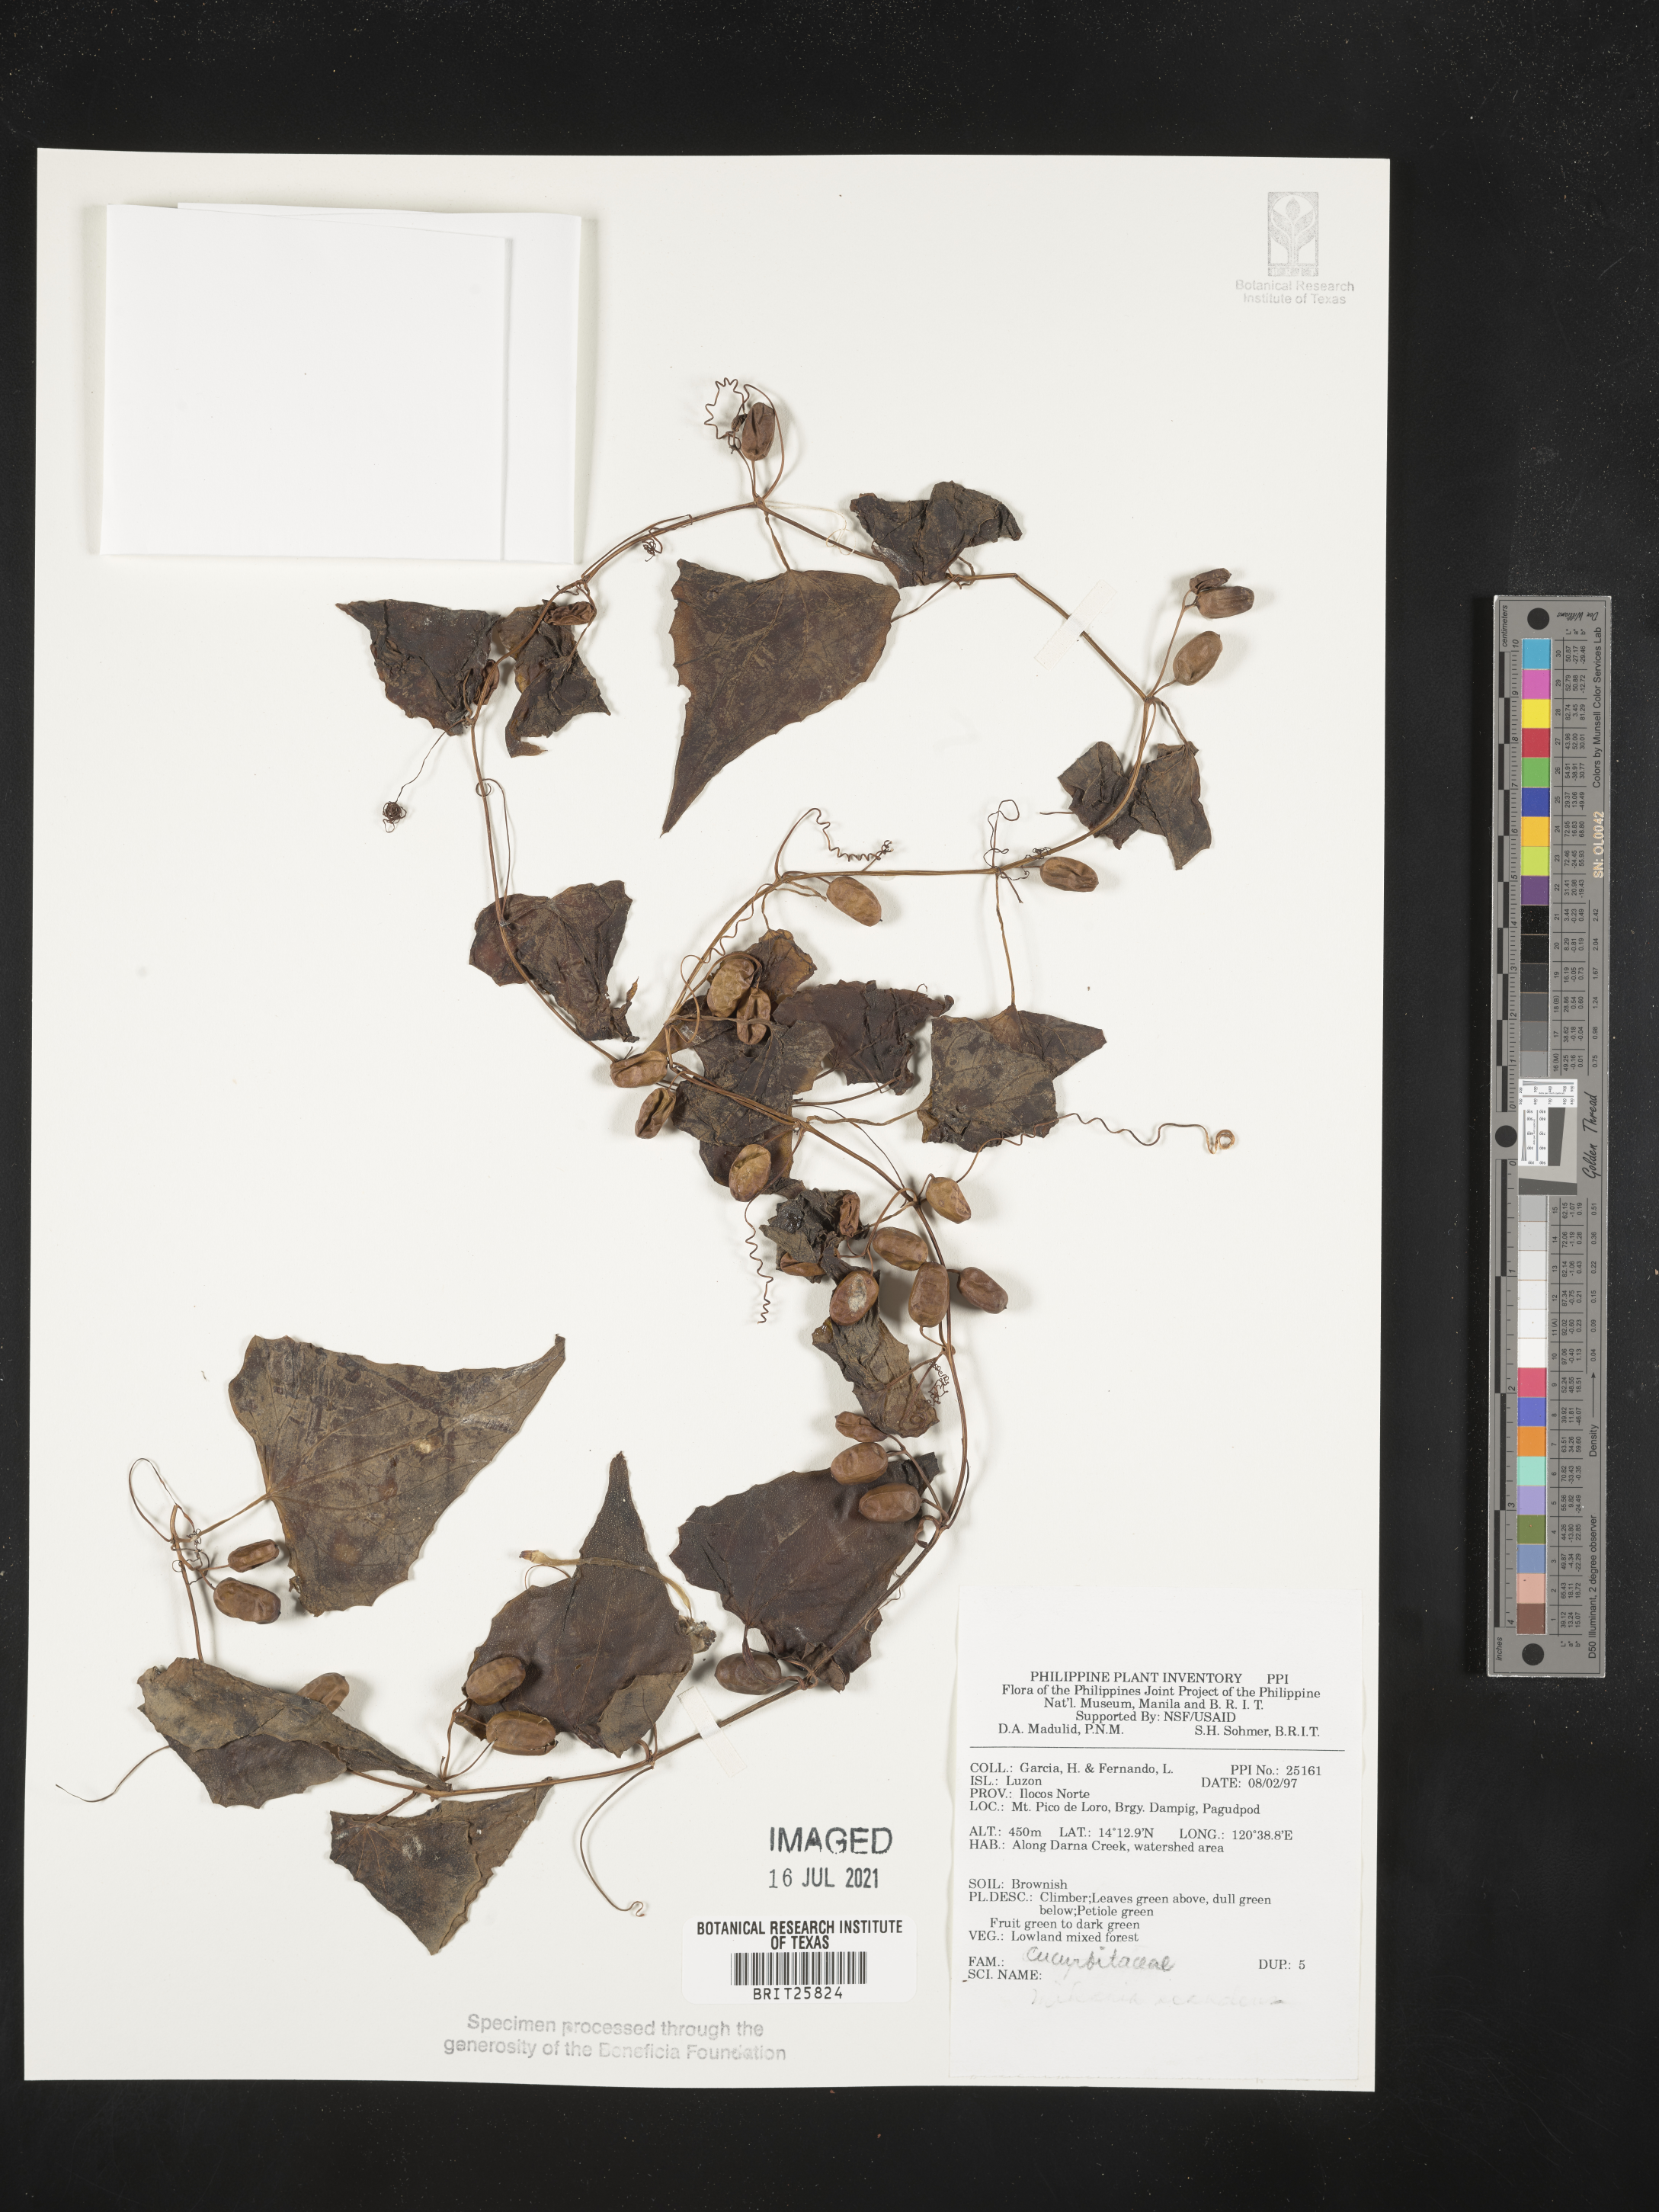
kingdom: Plantae
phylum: Tracheophyta
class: Magnoliopsida
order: Cucurbitales
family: Cucurbitaceae
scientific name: Cucurbitaceae
